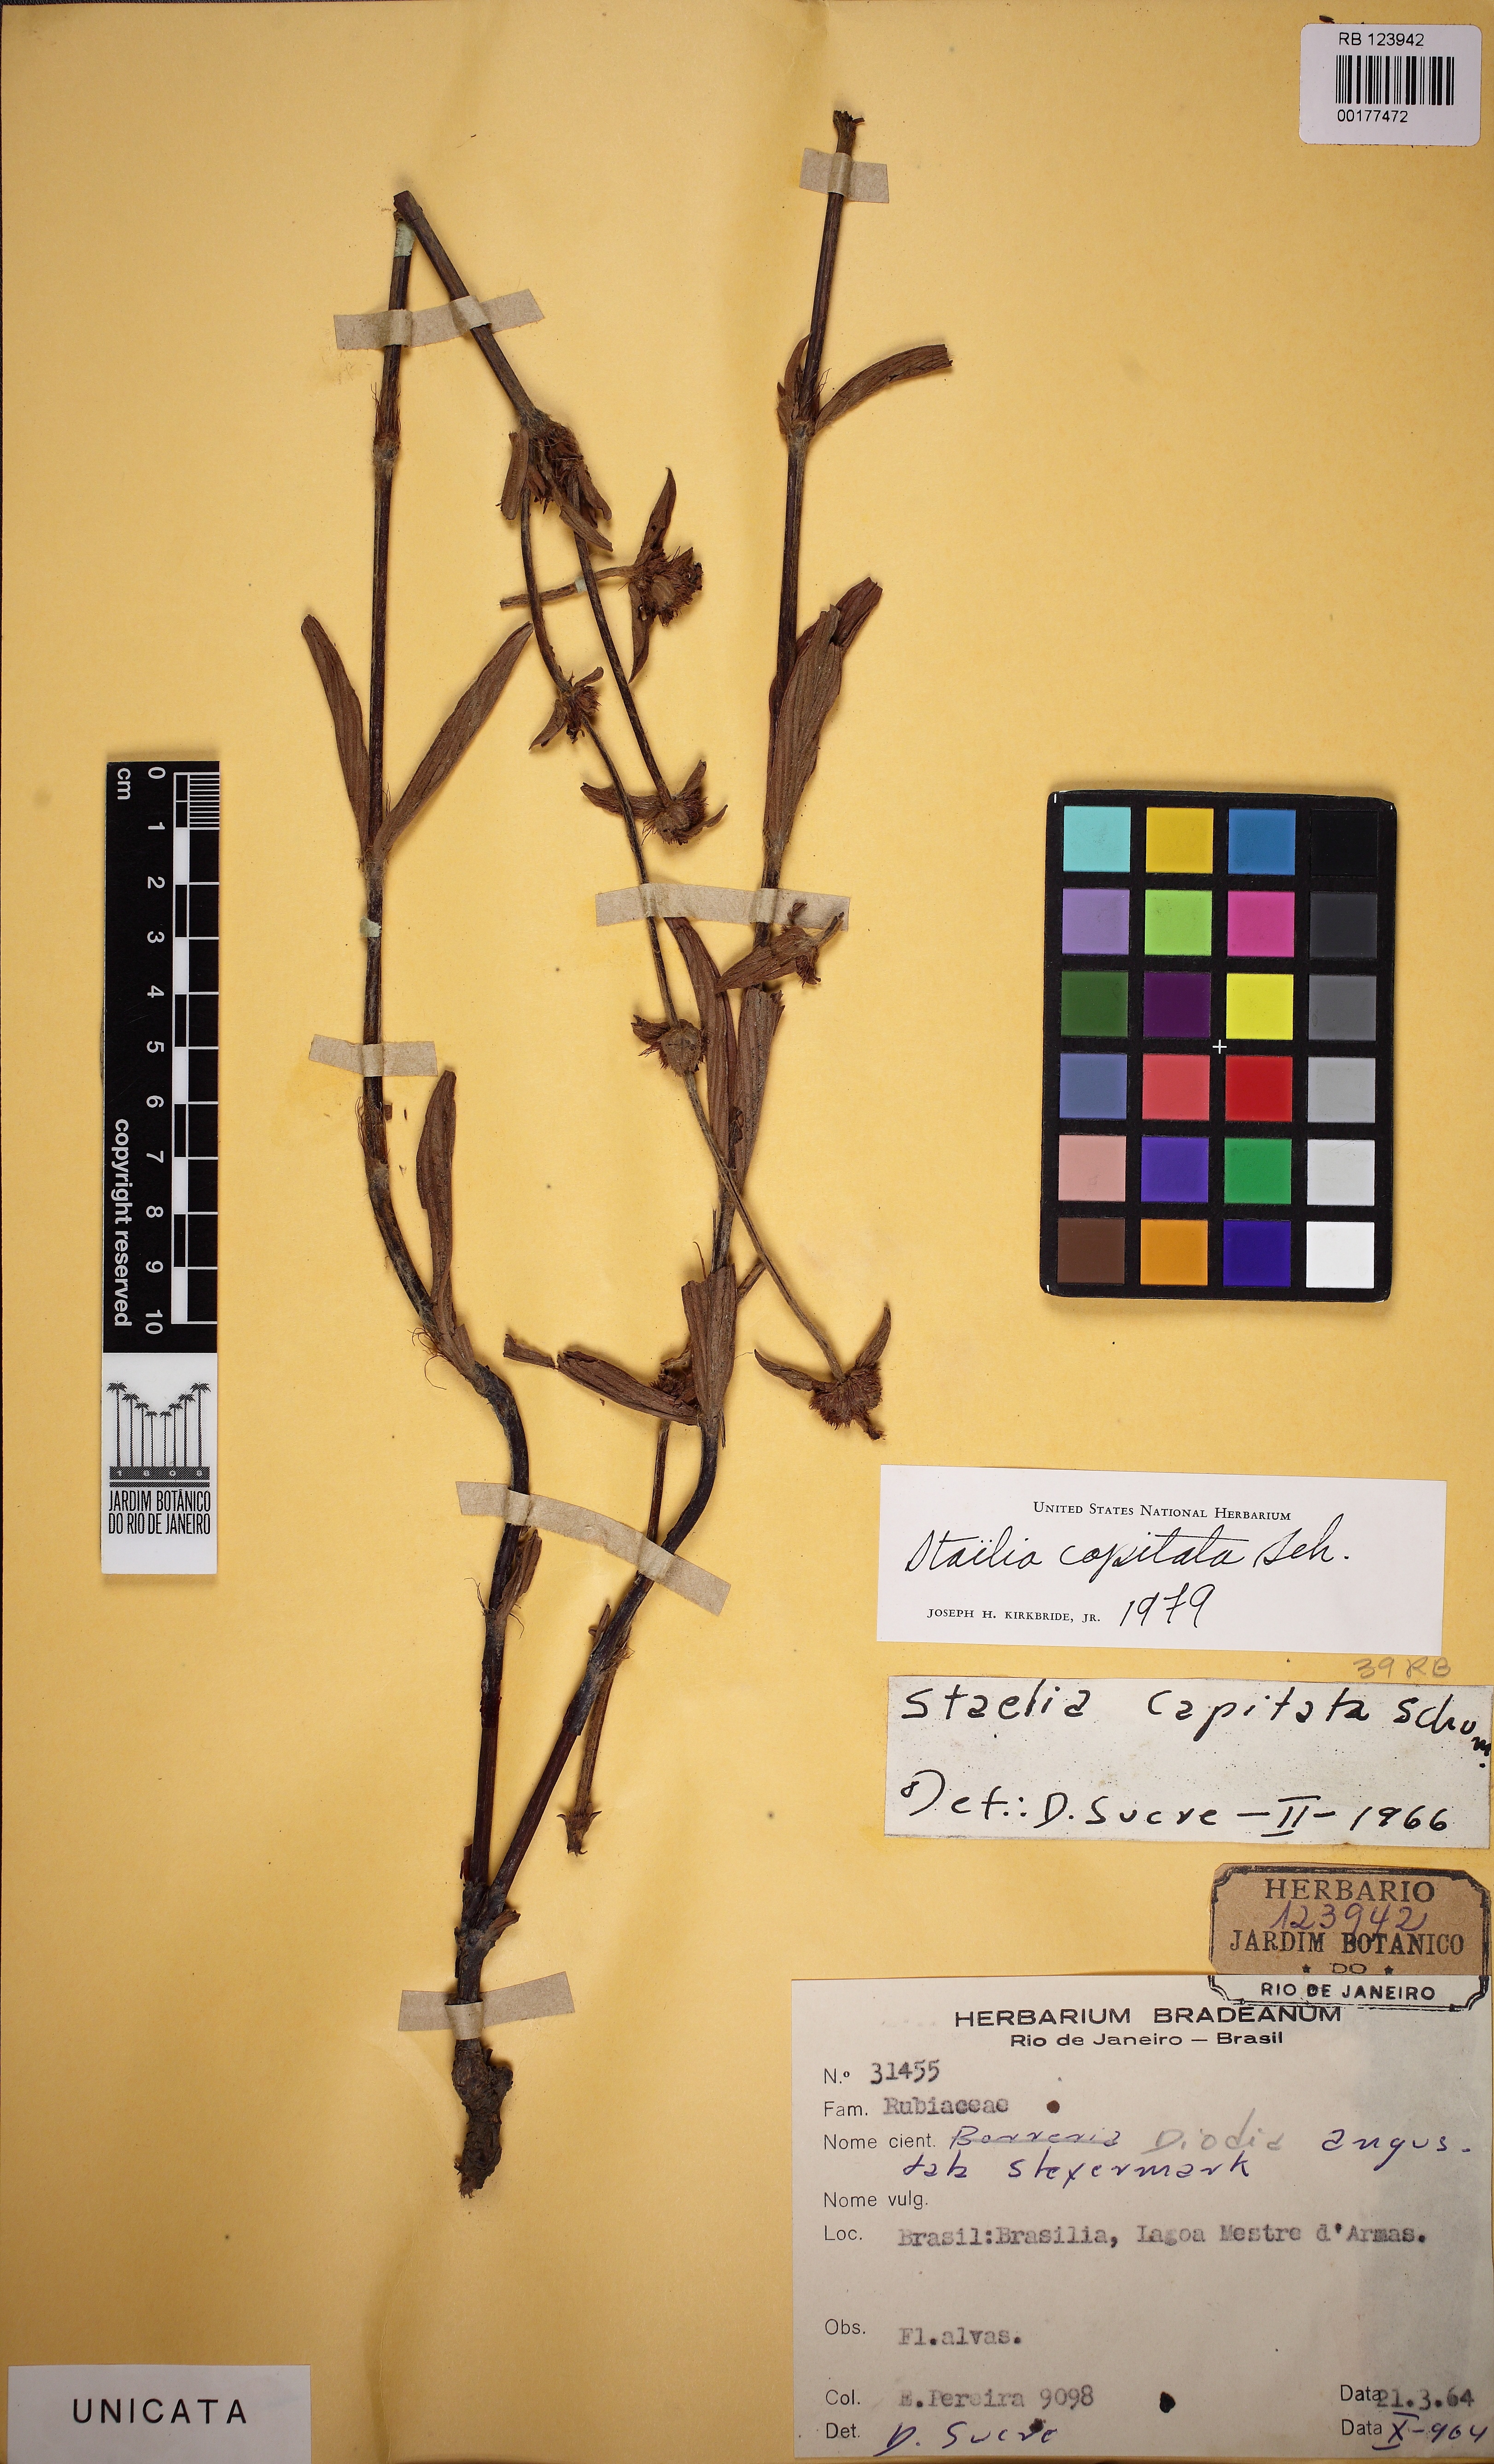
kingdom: Plantae
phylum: Tracheophyta
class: Magnoliopsida
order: Gentianales
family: Rubiaceae
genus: Planaltina
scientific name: Planaltina capitata
